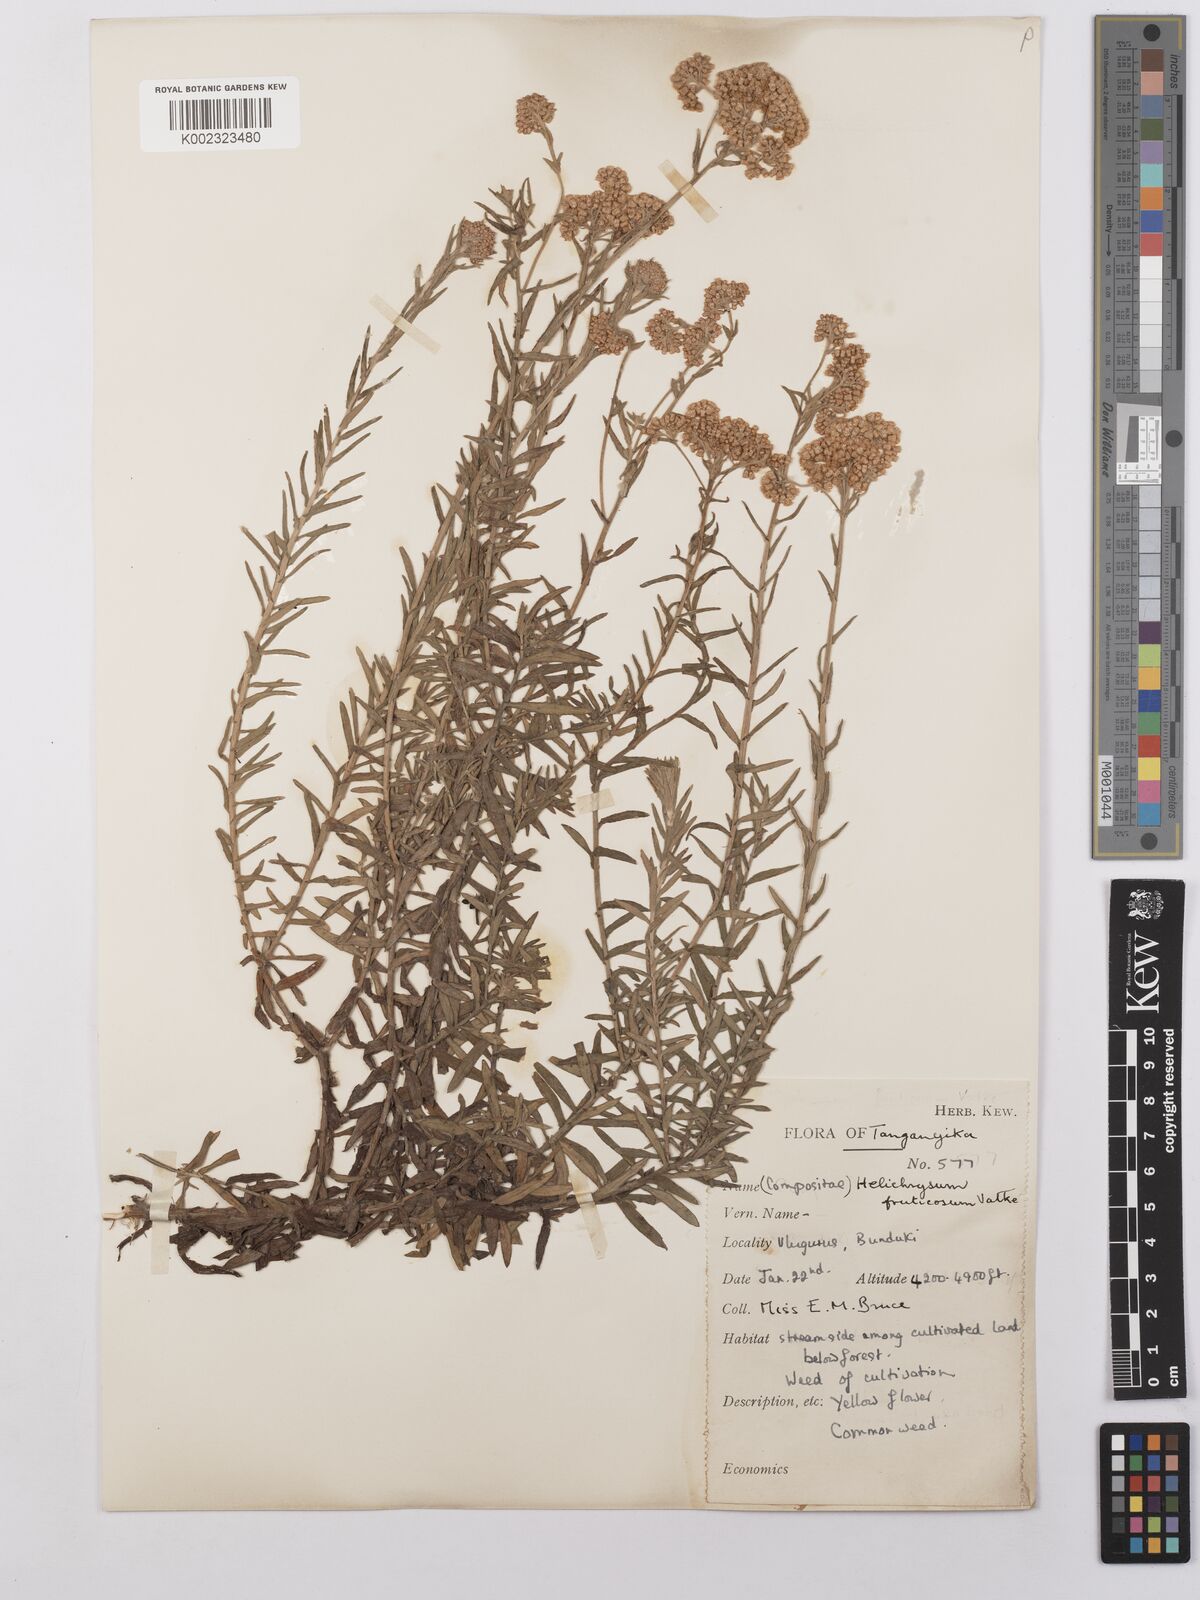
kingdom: Plantae
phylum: Tracheophyta
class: Magnoliopsida
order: Asterales
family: Asteraceae
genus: Helichrysum
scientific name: Helichrysum forskahlii
